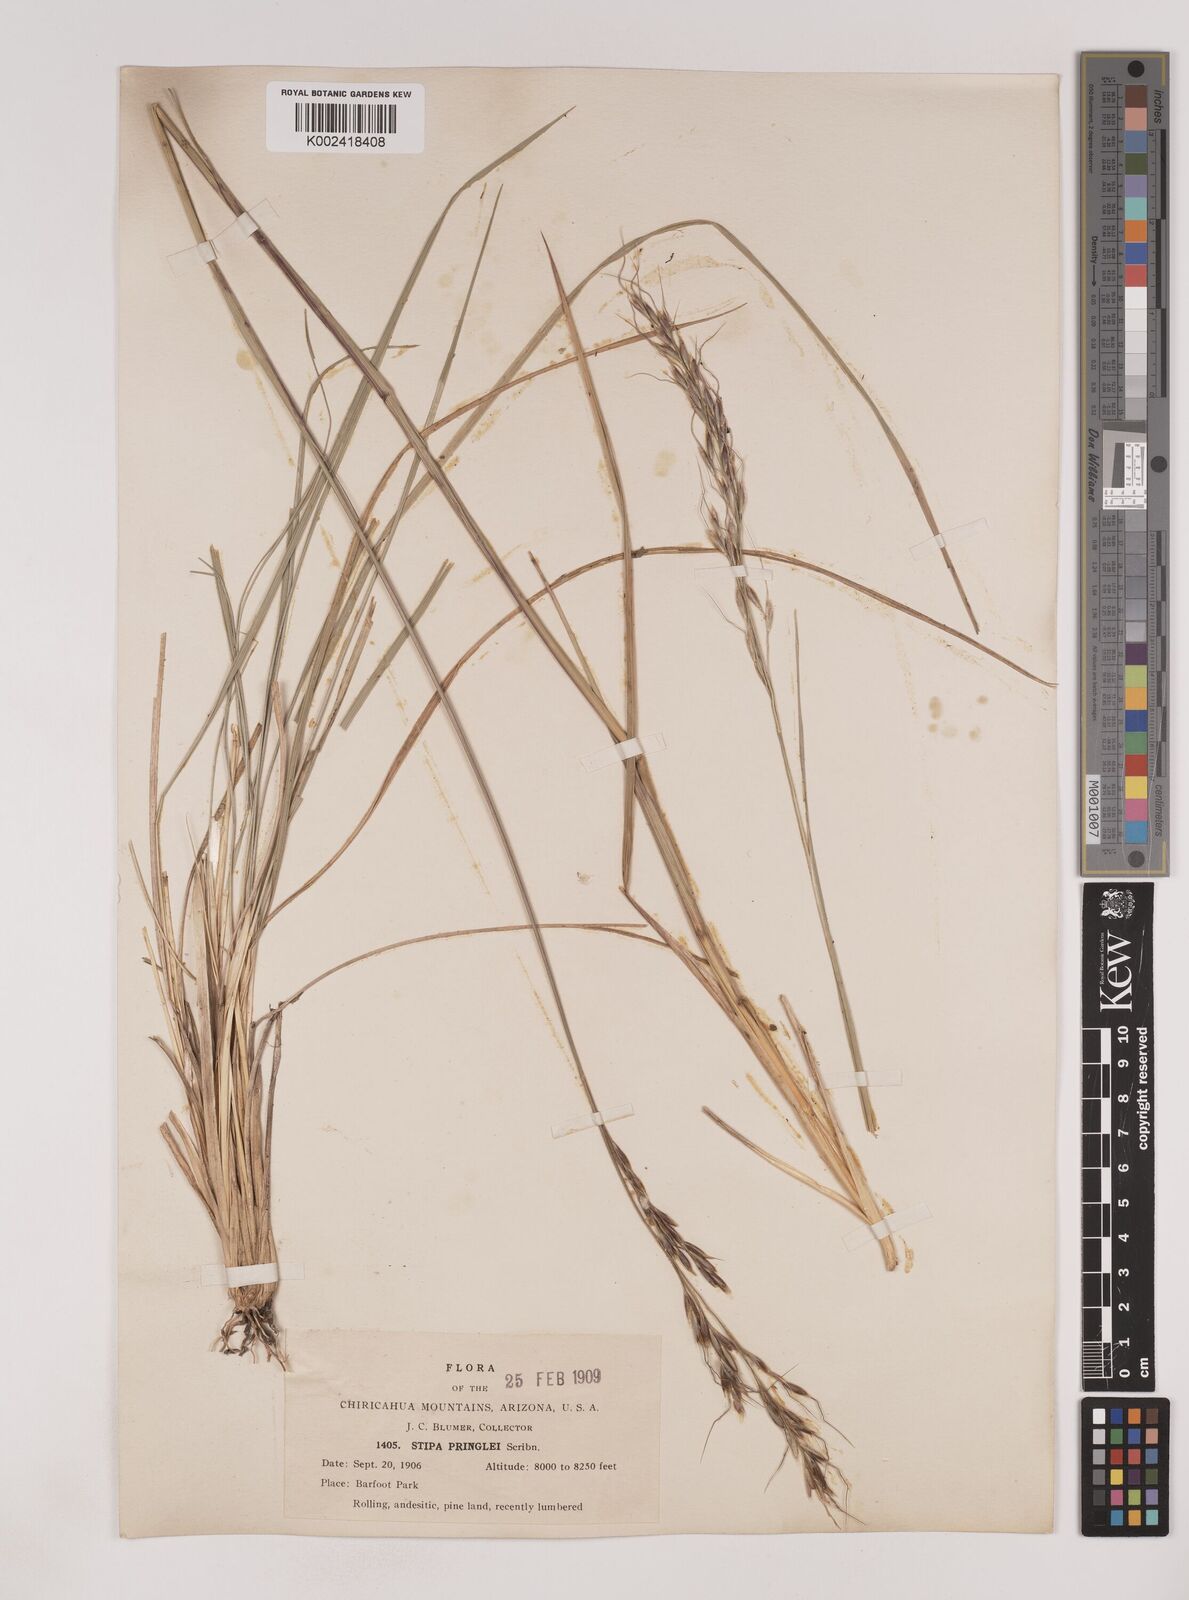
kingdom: Plantae
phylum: Tracheophyta
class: Liliopsida
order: Poales
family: Poaceae
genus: Piptochaetium
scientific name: Piptochaetium pringlei
